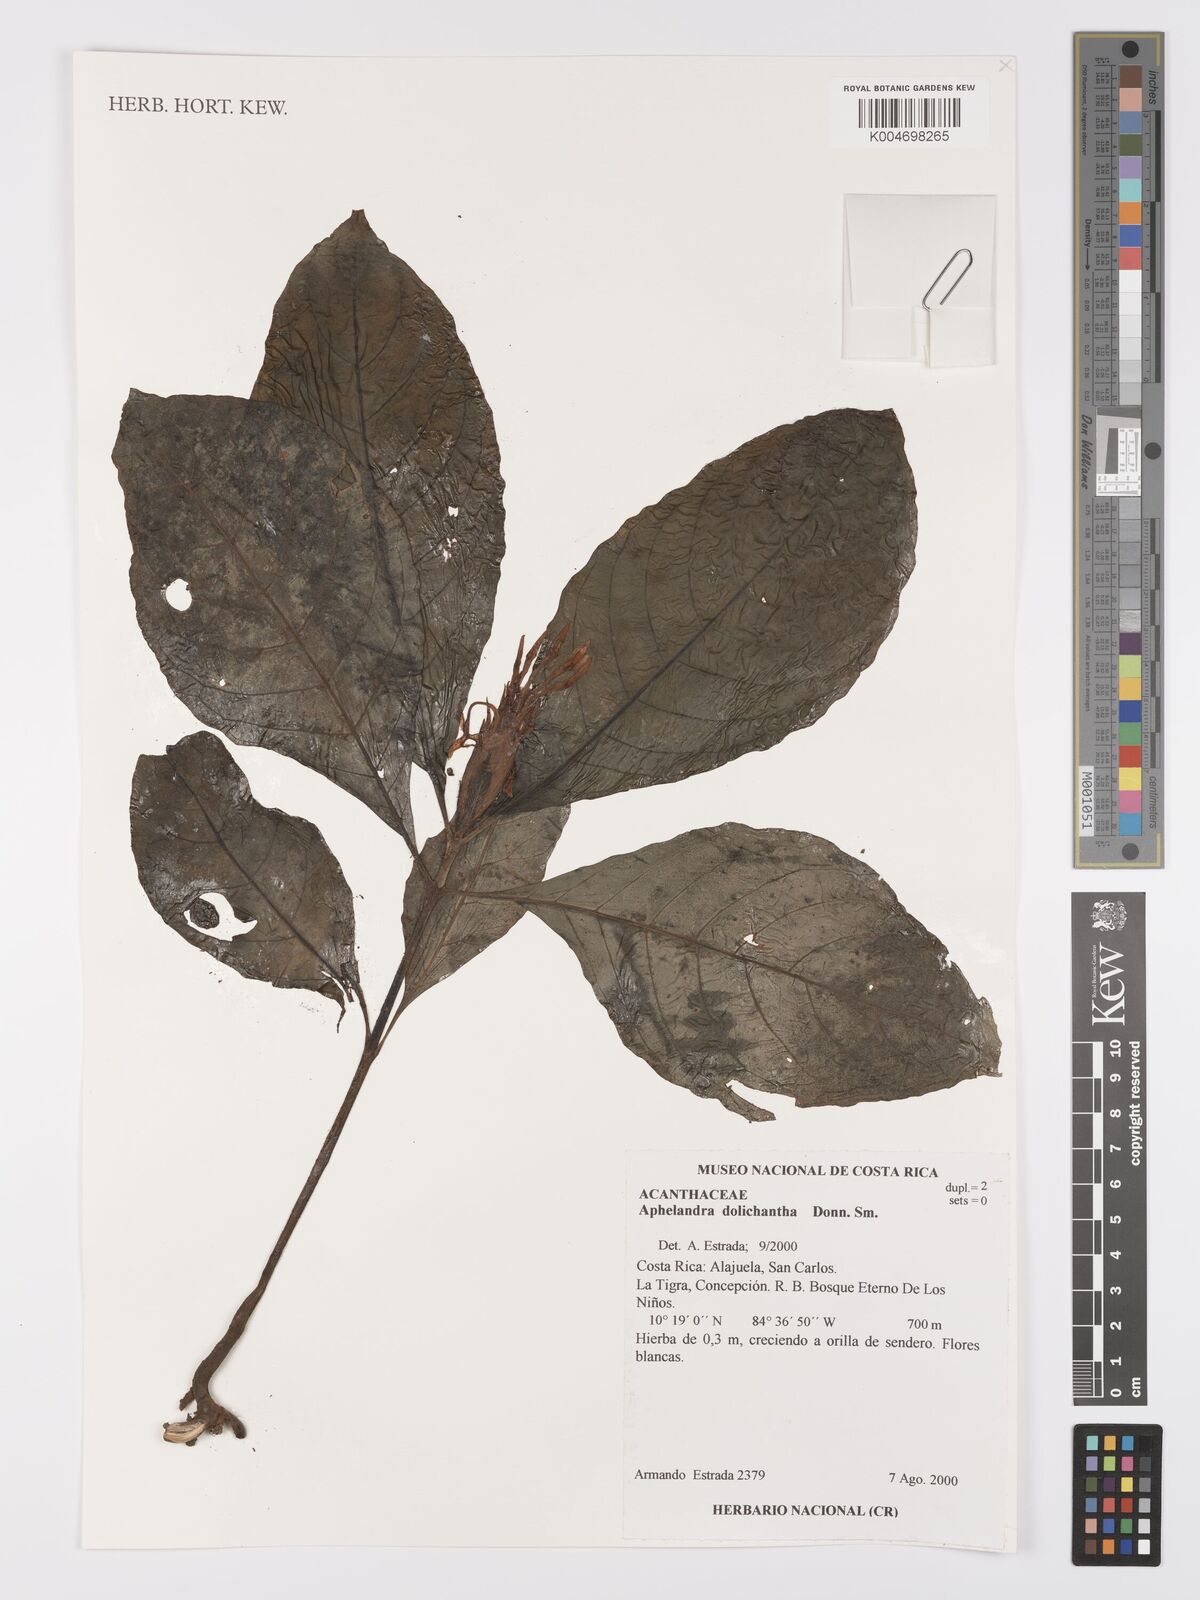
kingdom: Plantae
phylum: Tracheophyta
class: Magnoliopsida
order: Lamiales
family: Acanthaceae
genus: Aphelandra
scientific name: Aphelandra dolichantha
